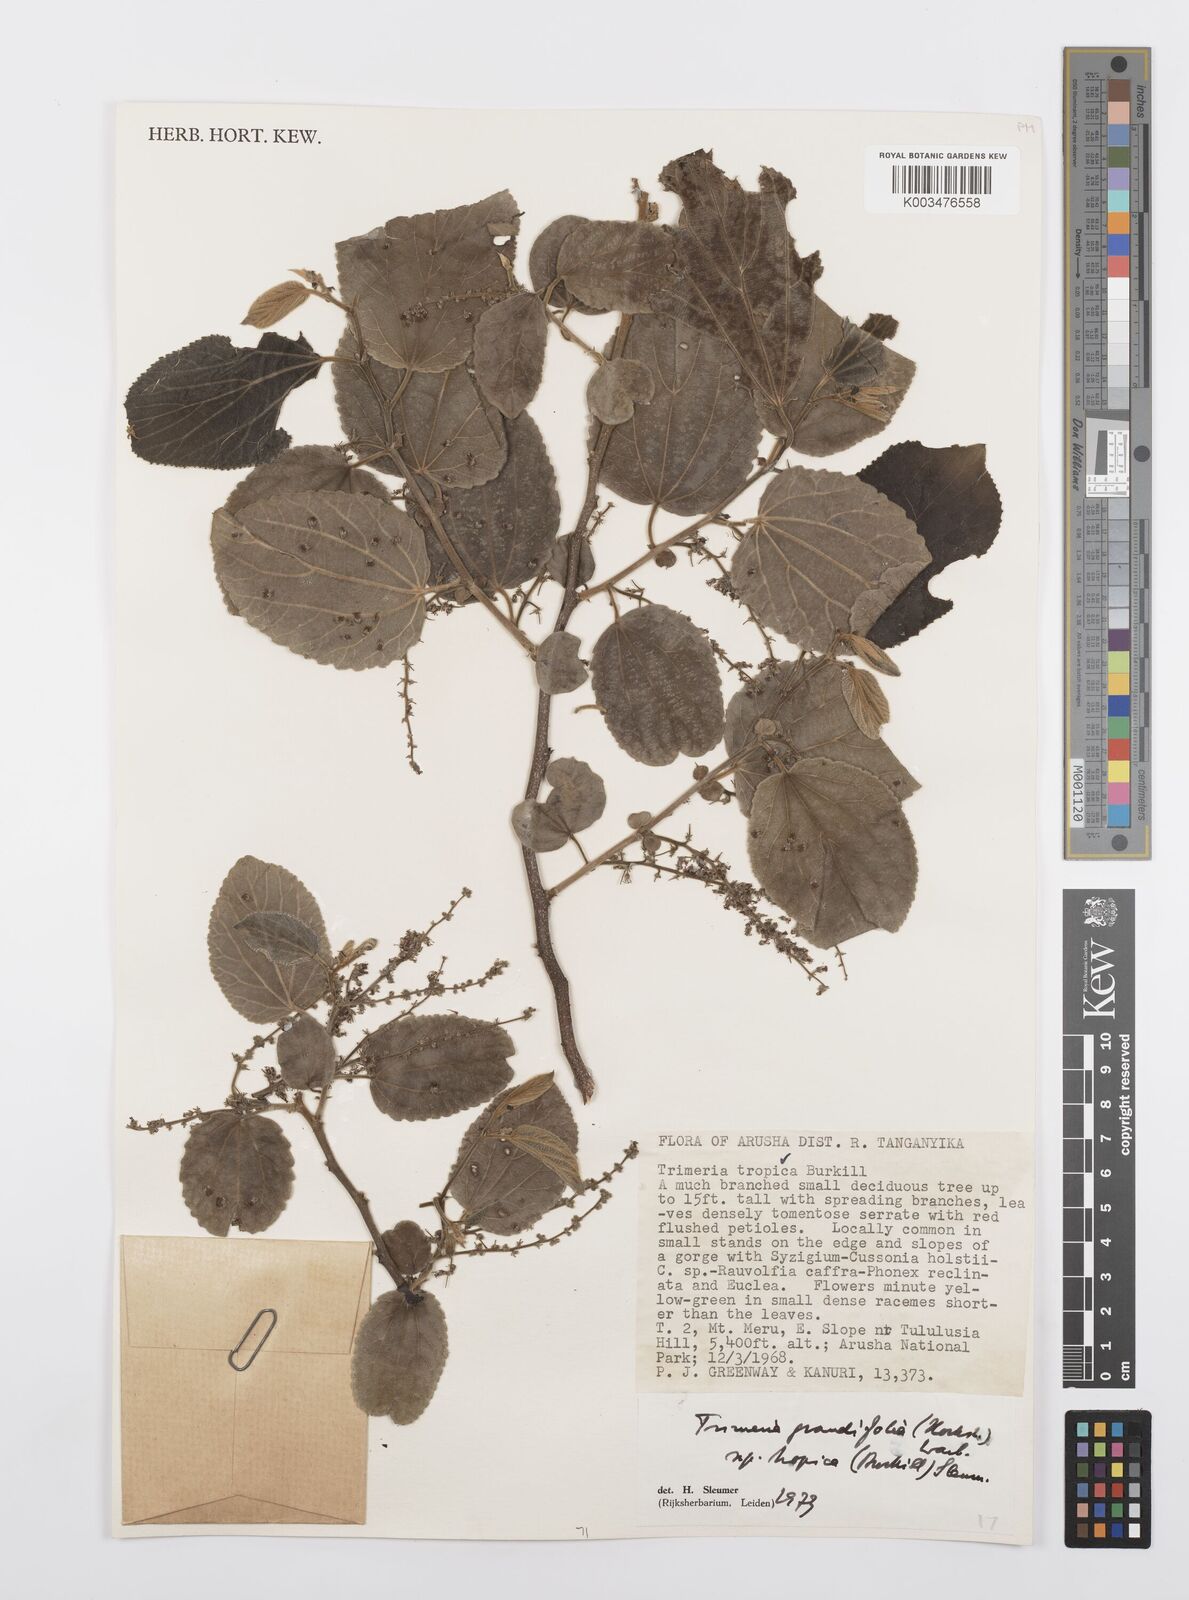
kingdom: Plantae
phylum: Tracheophyta
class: Magnoliopsida
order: Malpighiales
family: Salicaceae
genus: Trimeria
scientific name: Trimeria grandifolia
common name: Wild mulberry
